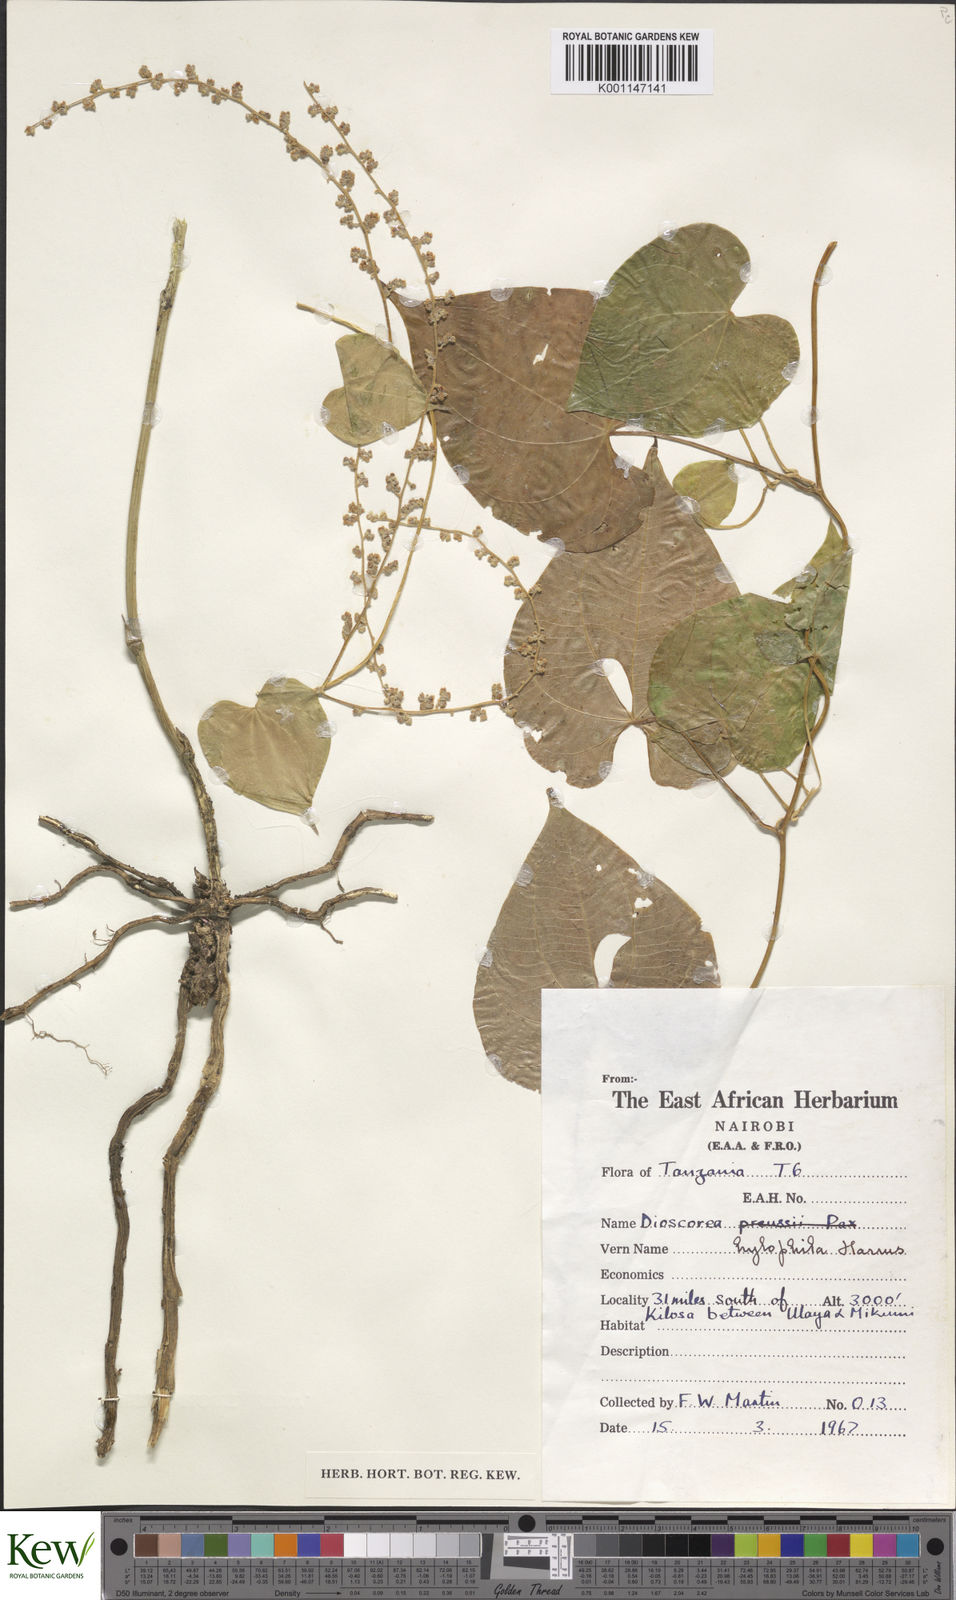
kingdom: Plantae
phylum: Tracheophyta
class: Liliopsida
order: Dioscoreales
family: Dioscoreaceae
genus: Dioscorea
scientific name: Dioscorea
